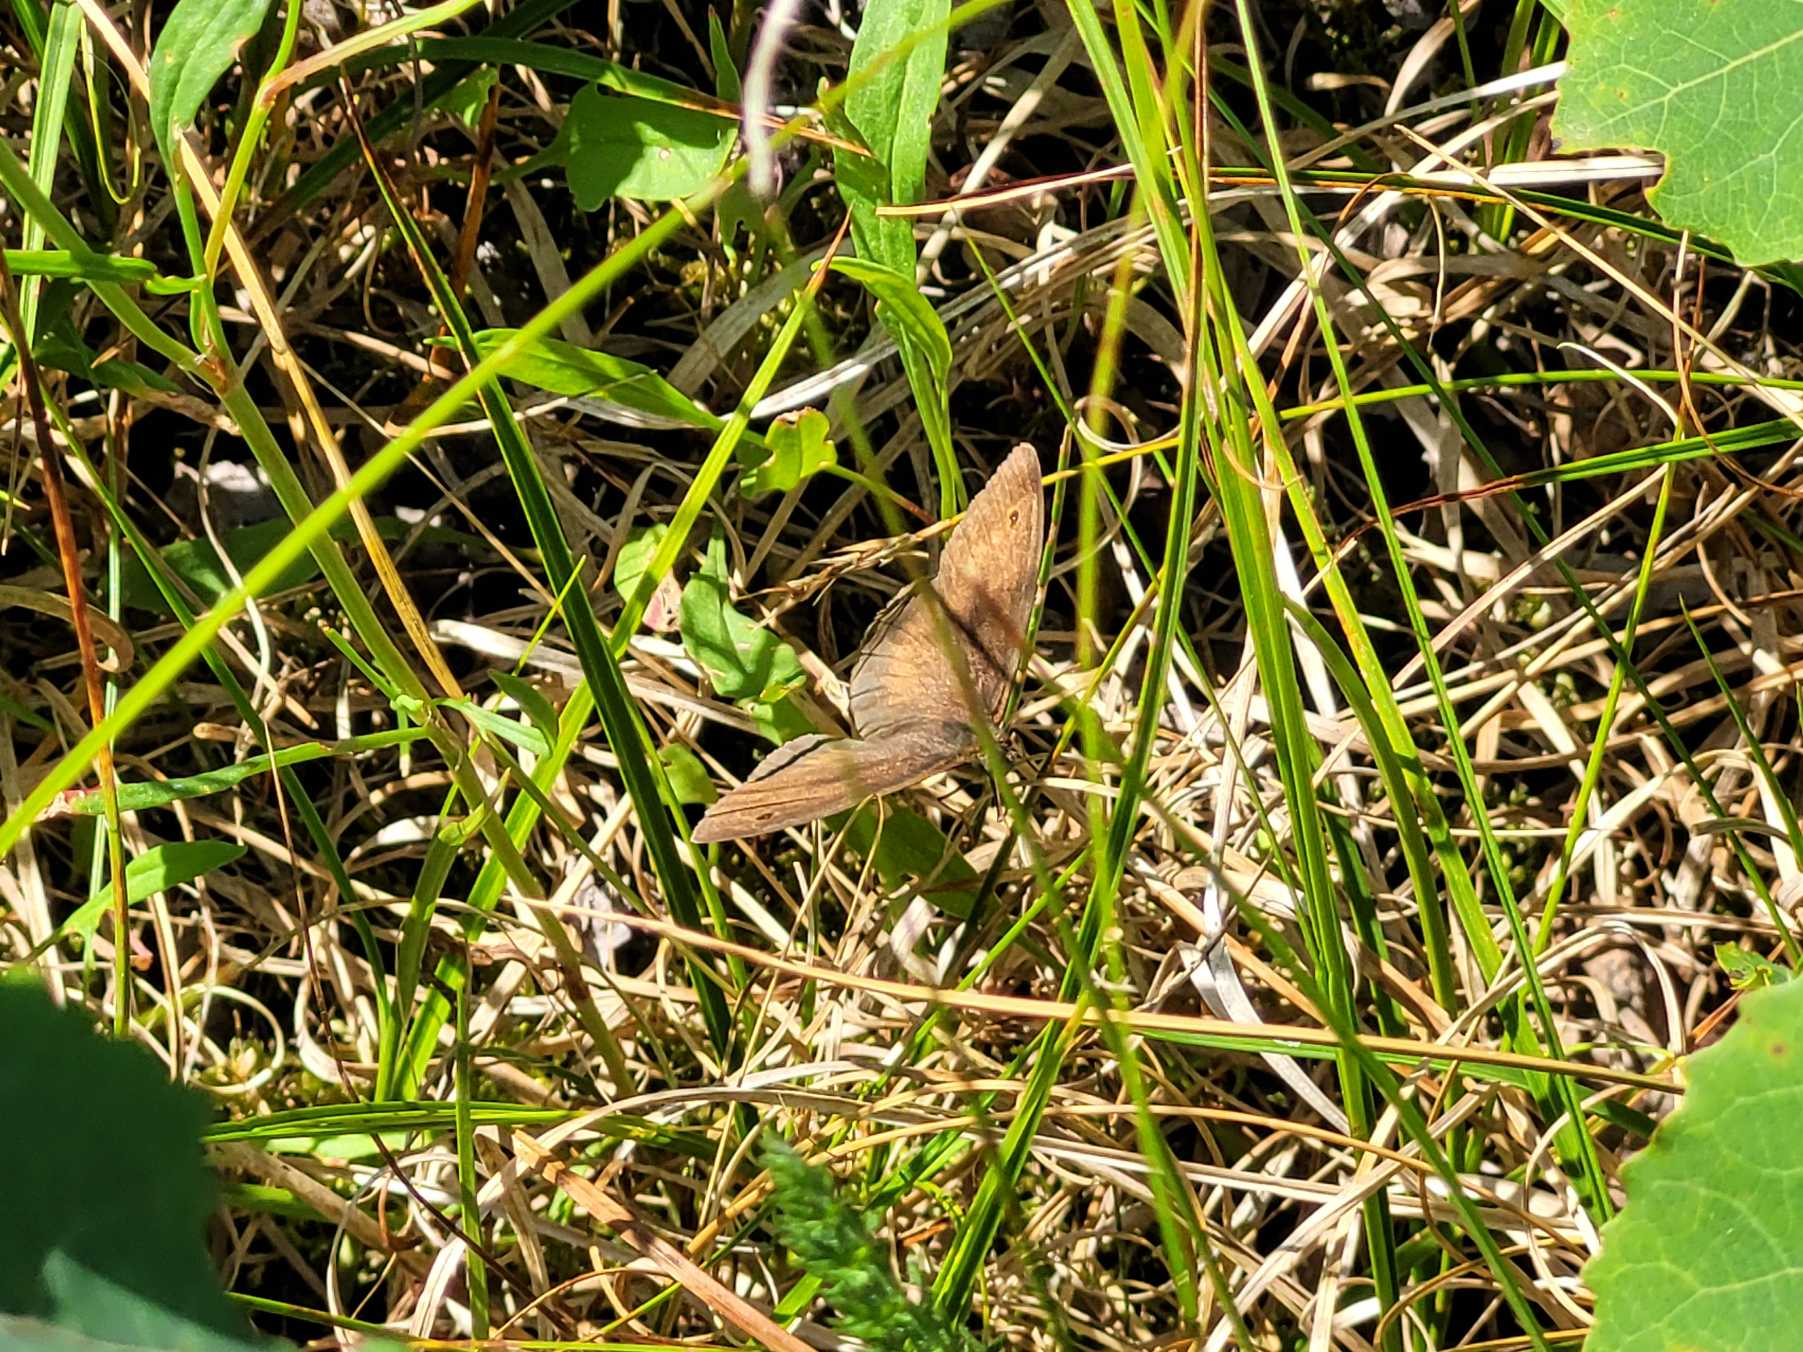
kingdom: Animalia
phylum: Arthropoda
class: Insecta
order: Lepidoptera
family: Nymphalidae
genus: Maniola
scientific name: Maniola jurtina
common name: Græsrandøje
